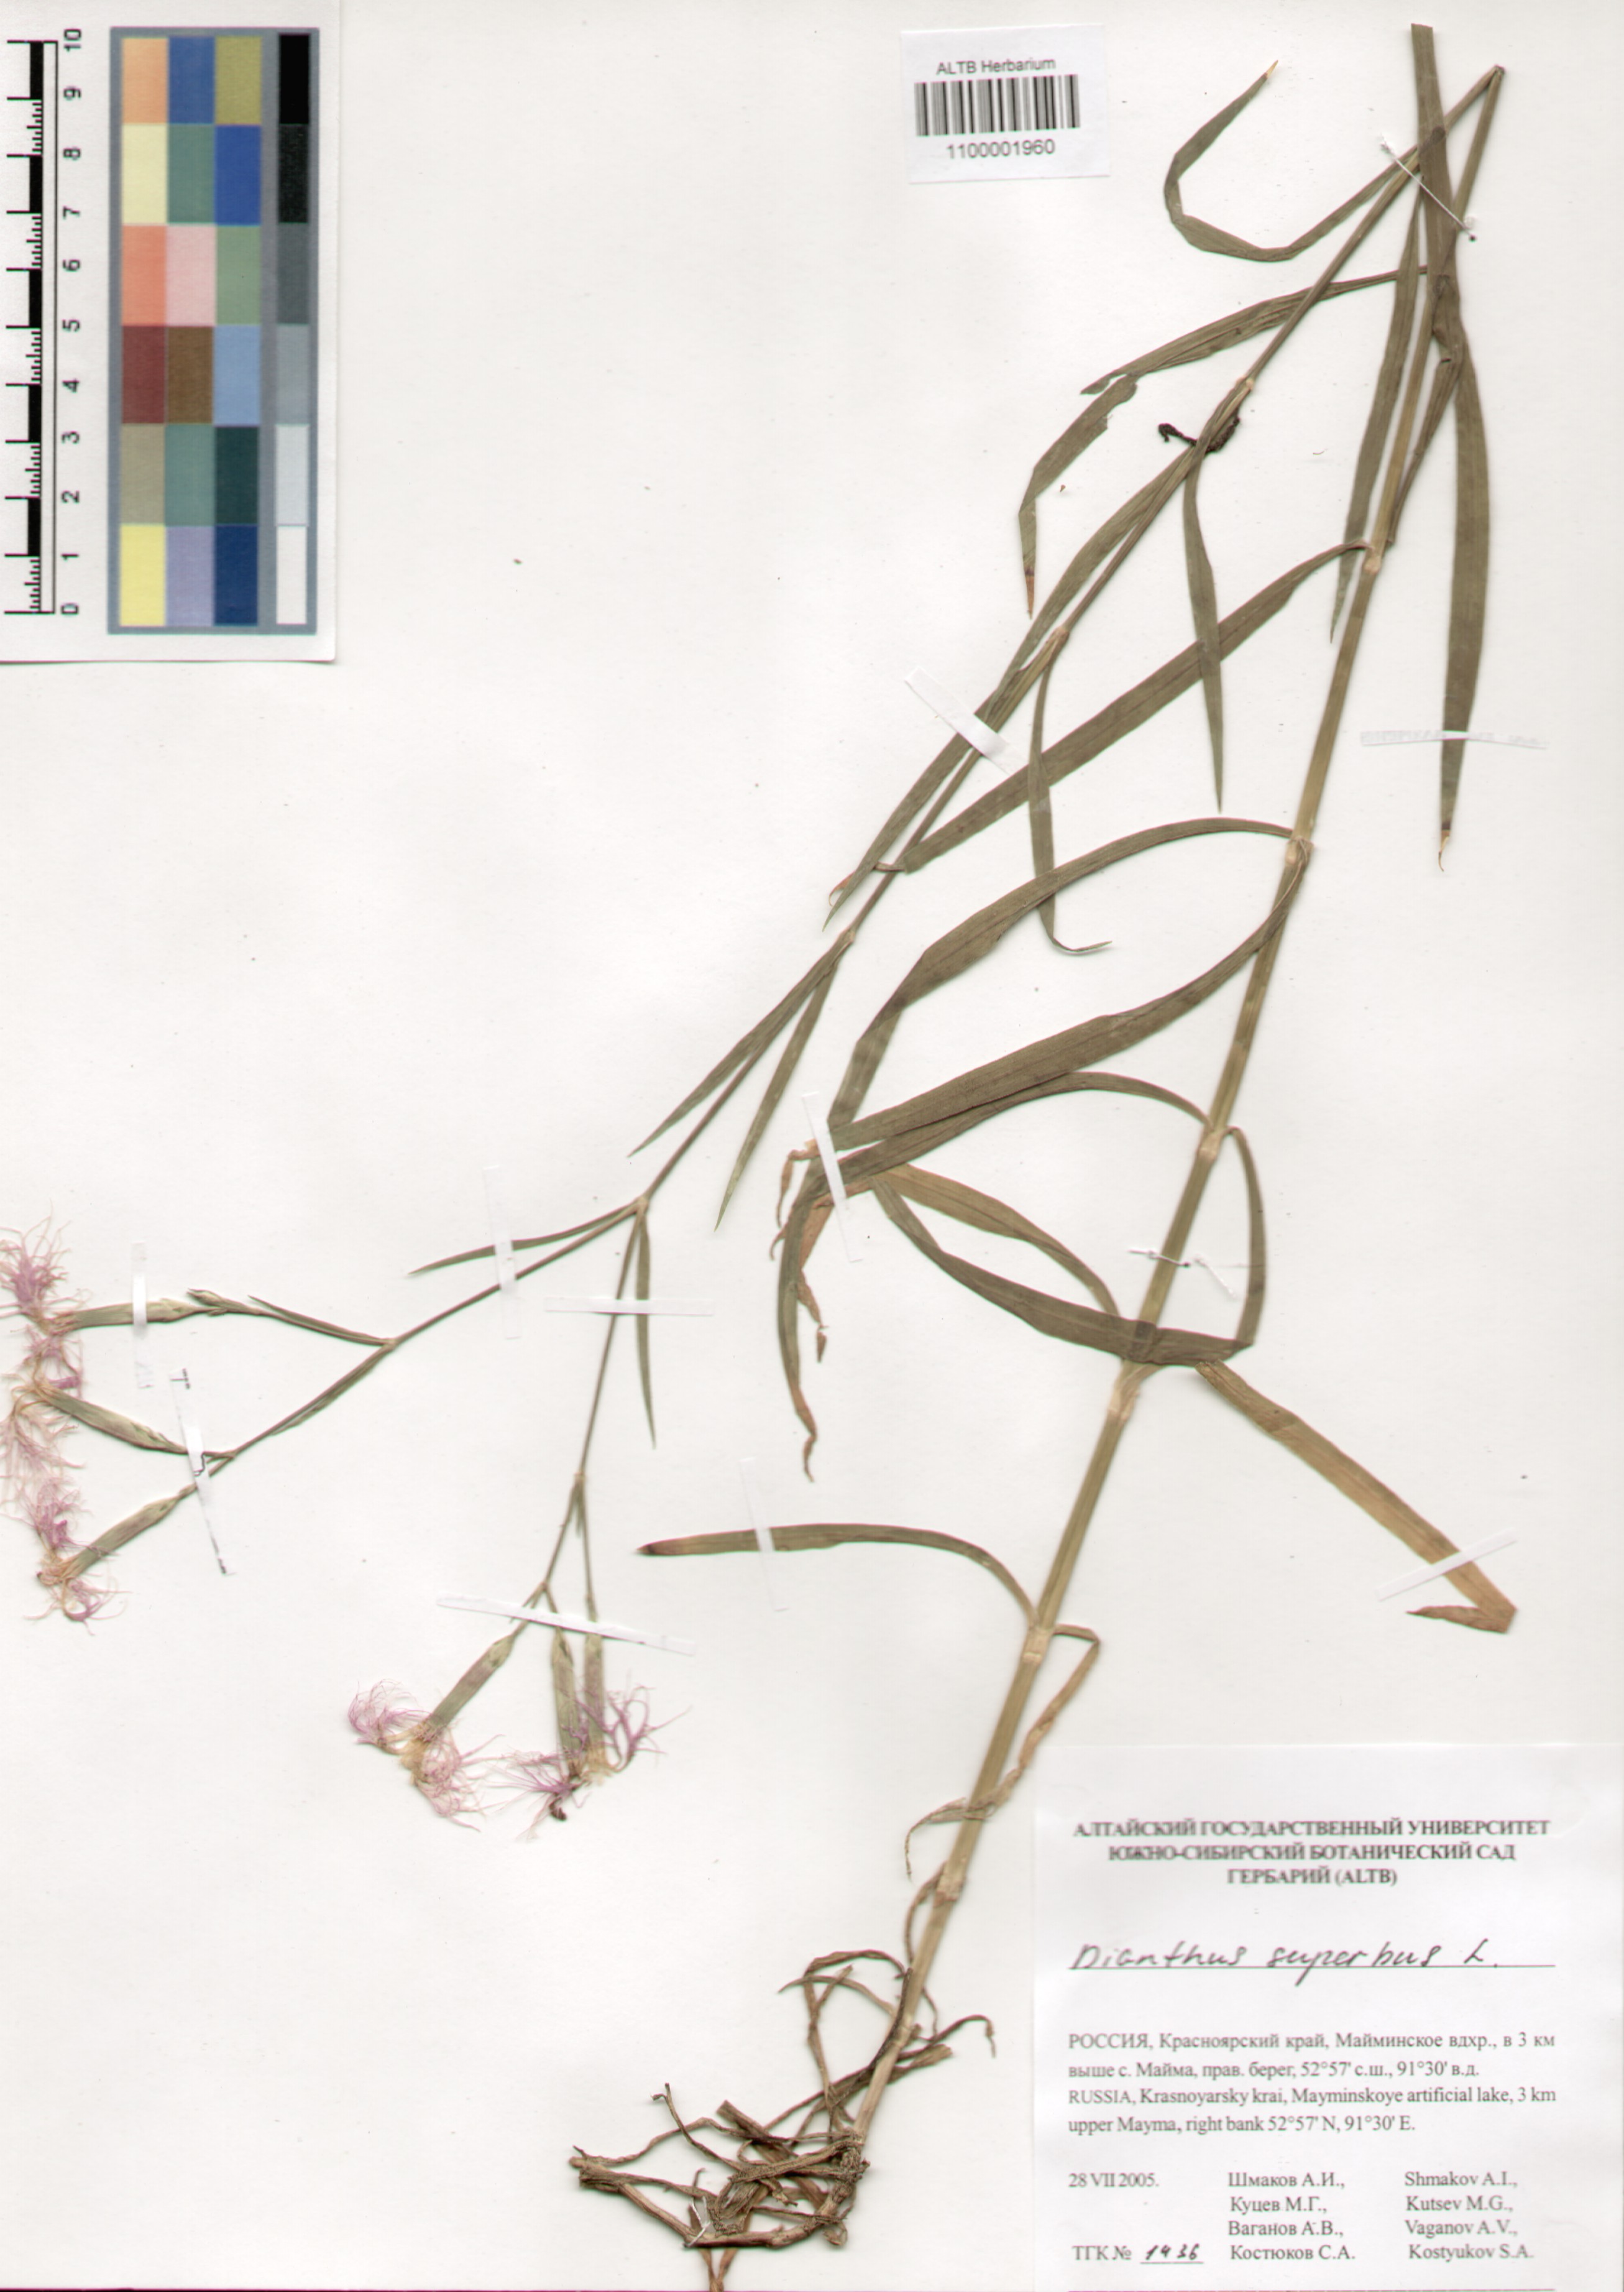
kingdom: Plantae
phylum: Tracheophyta
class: Magnoliopsida
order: Caryophyllales
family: Caryophyllaceae
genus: Dianthus
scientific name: Dianthus superbus
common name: Fringed pink
